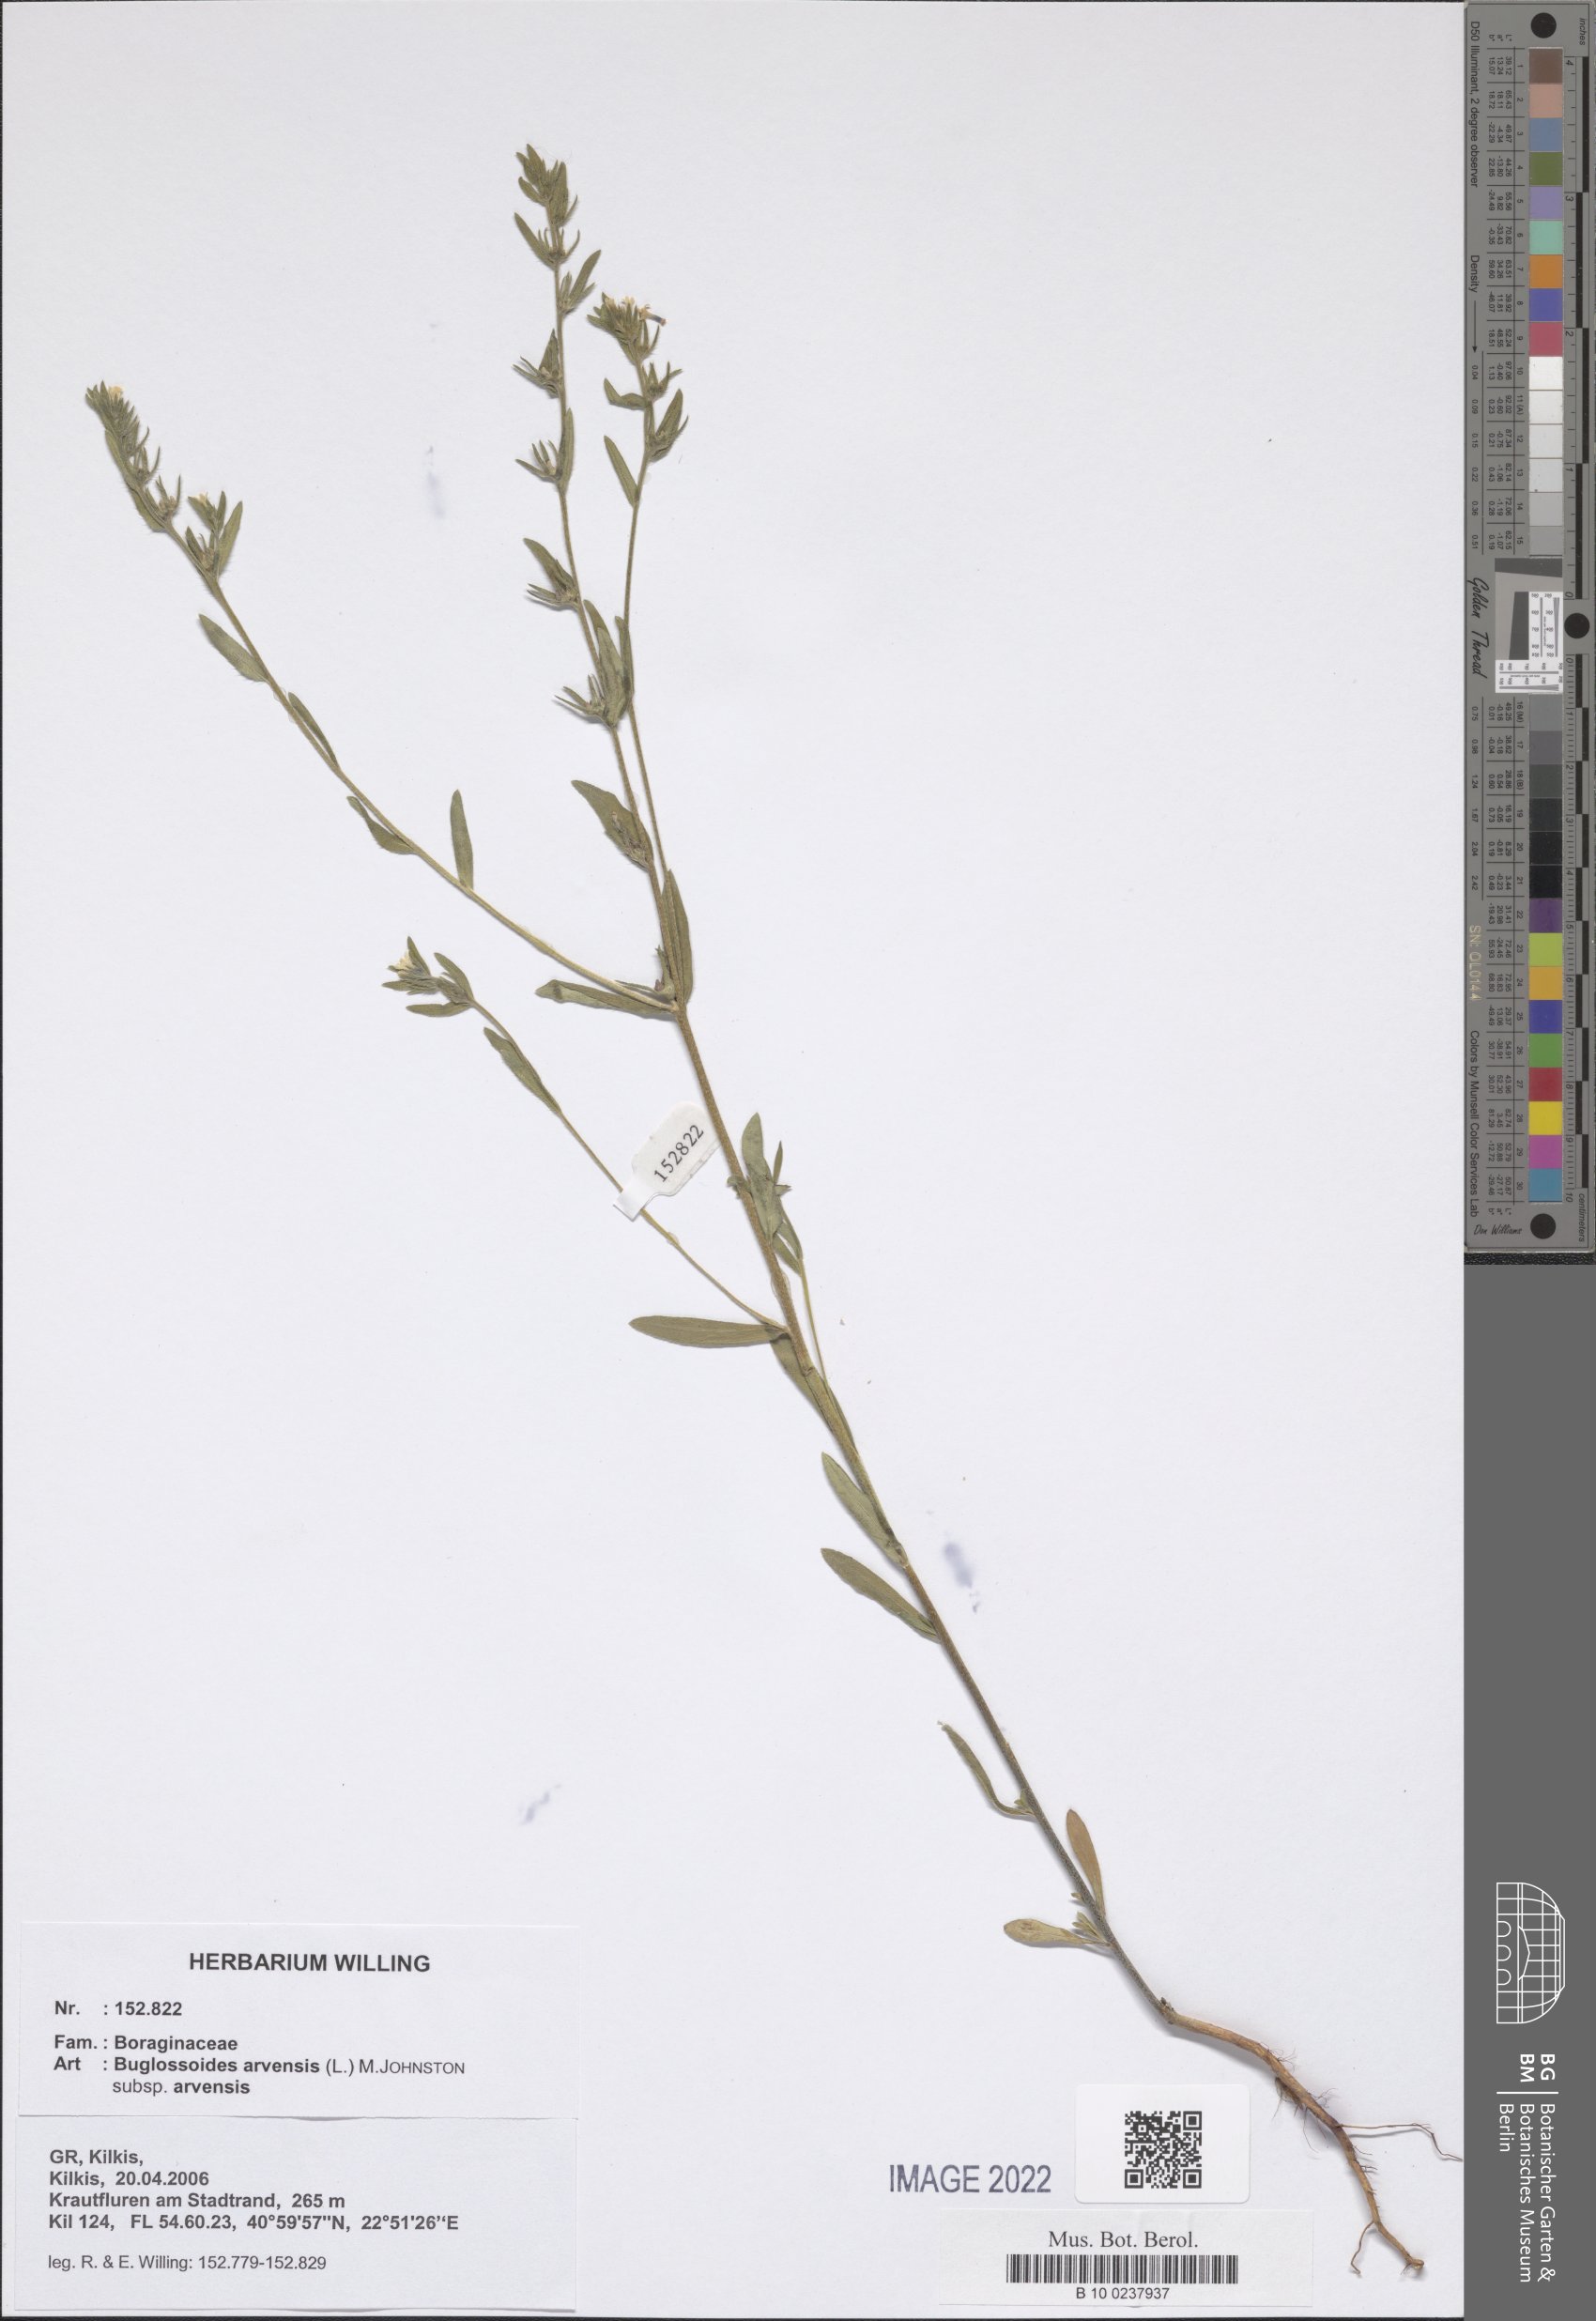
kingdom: Plantae
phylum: Tracheophyta
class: Magnoliopsida
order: Boraginales
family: Boraginaceae
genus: Buglossoides
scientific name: Buglossoides arvensis
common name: Corn gromwell
